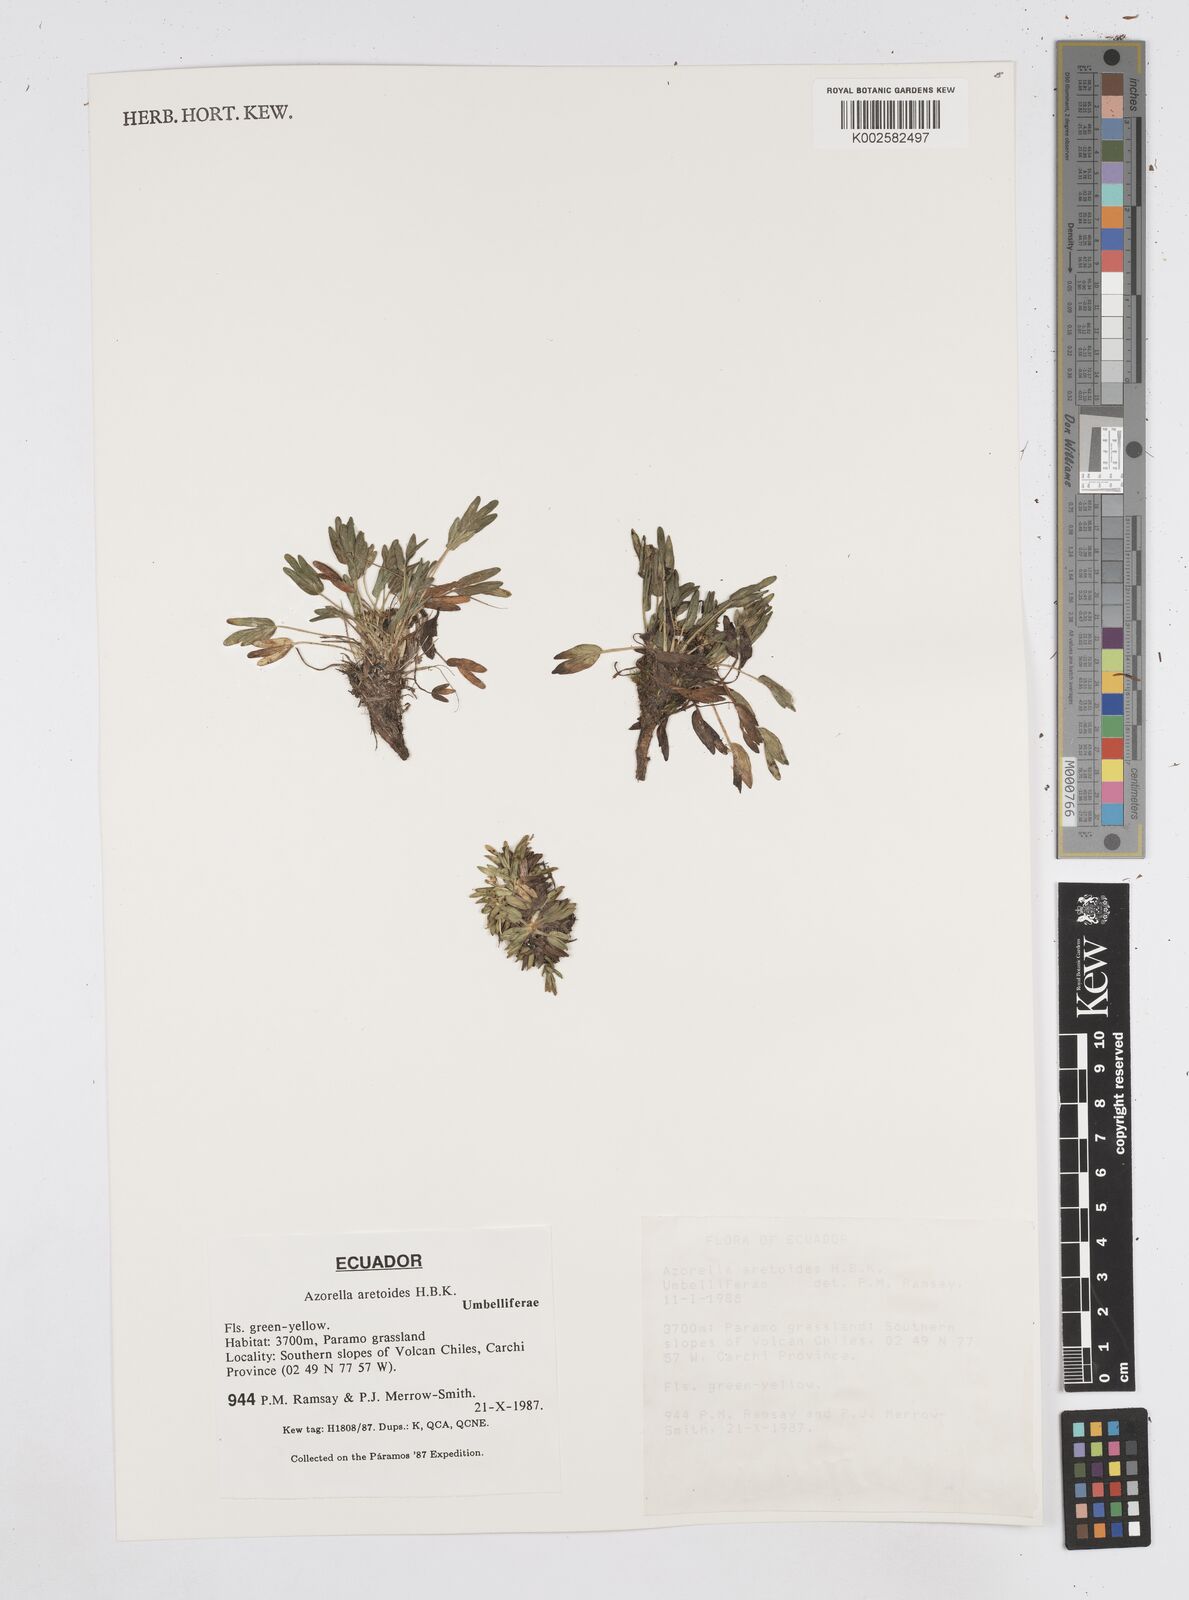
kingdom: Plantae
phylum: Tracheophyta
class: Magnoliopsida
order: Apiales
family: Apiaceae
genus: Azorella
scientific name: Azorella aretioides
